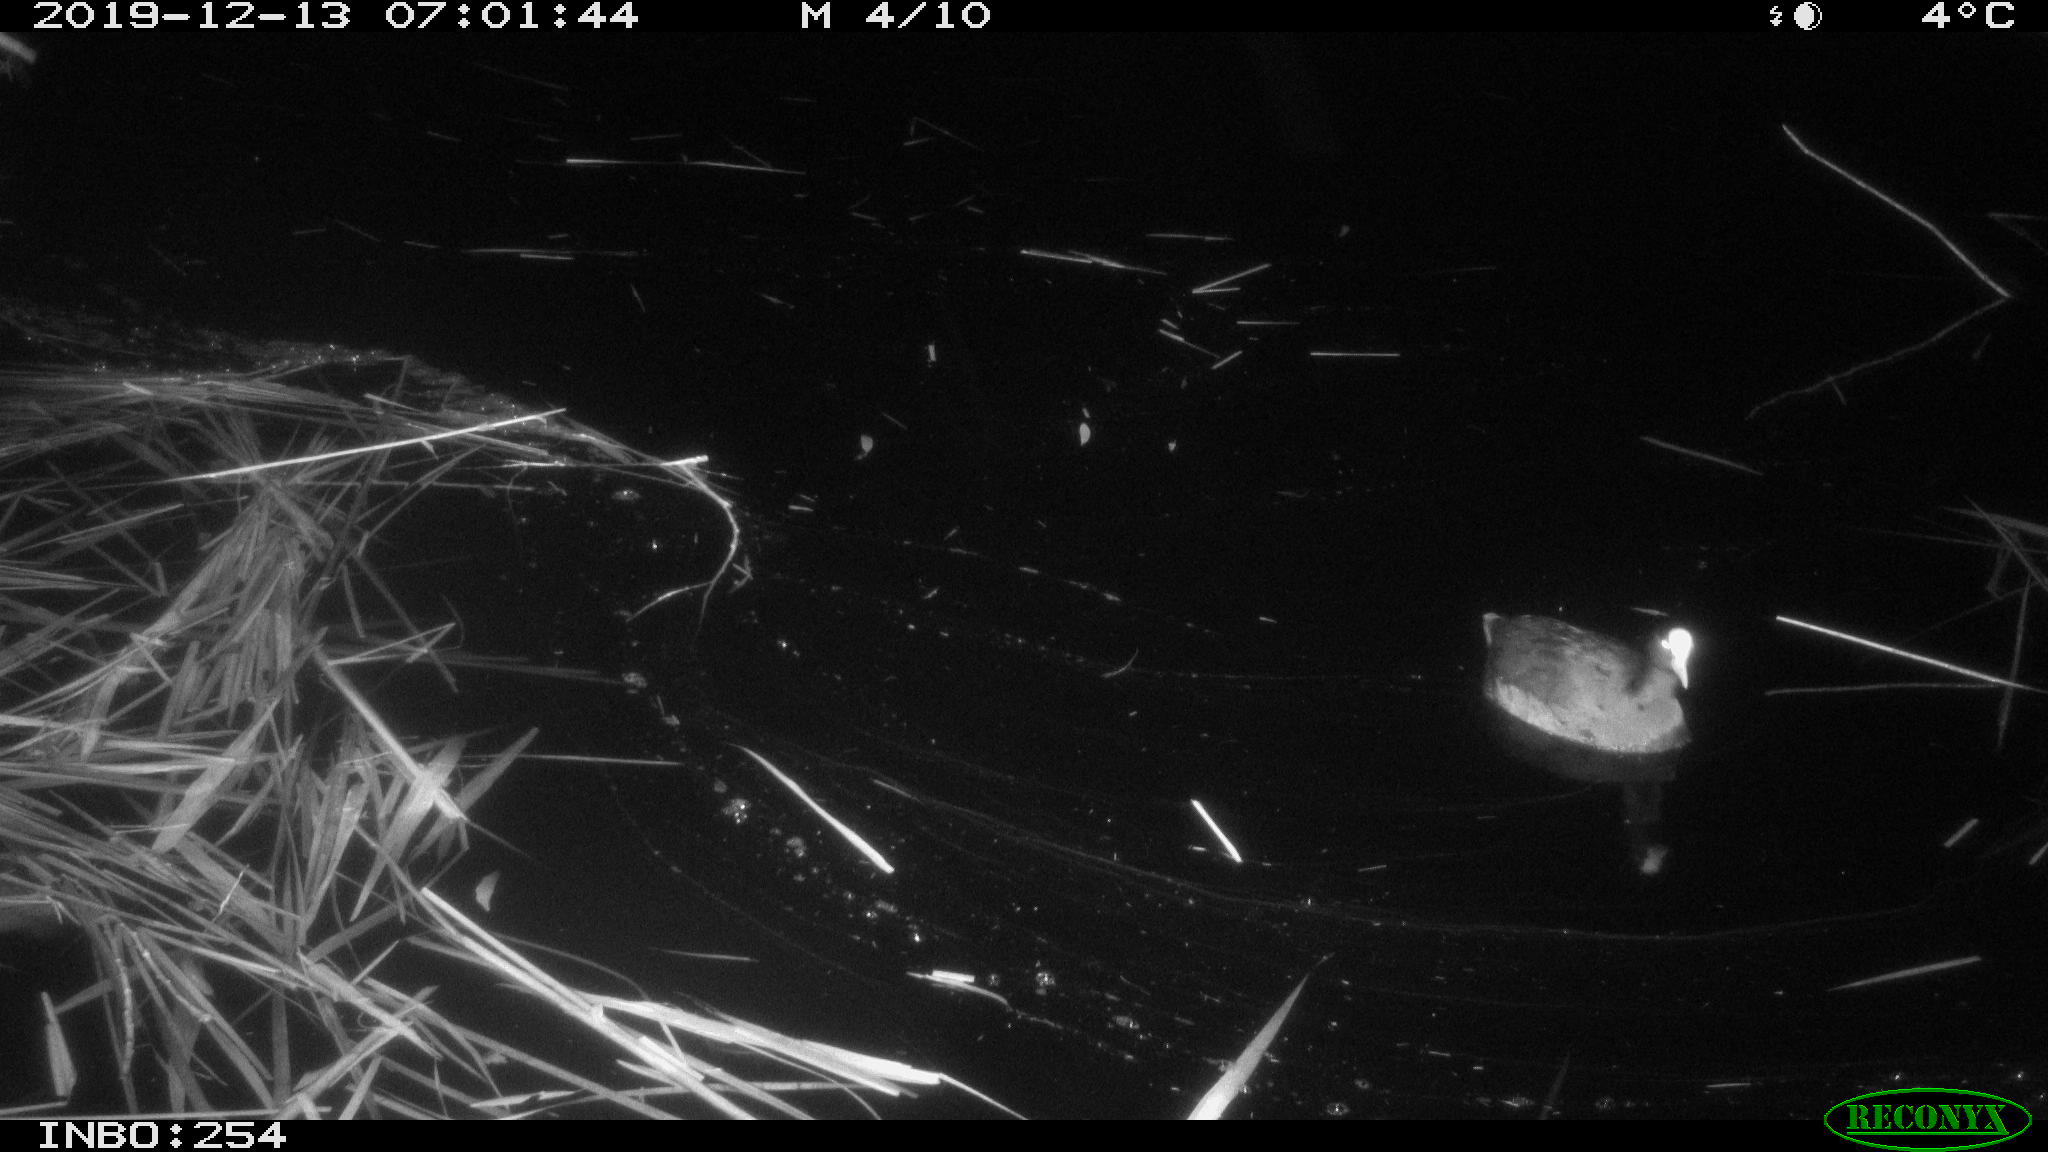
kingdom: Animalia
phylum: Chordata
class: Aves
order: Gruiformes
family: Rallidae
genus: Fulica
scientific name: Fulica atra
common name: Eurasian coot
